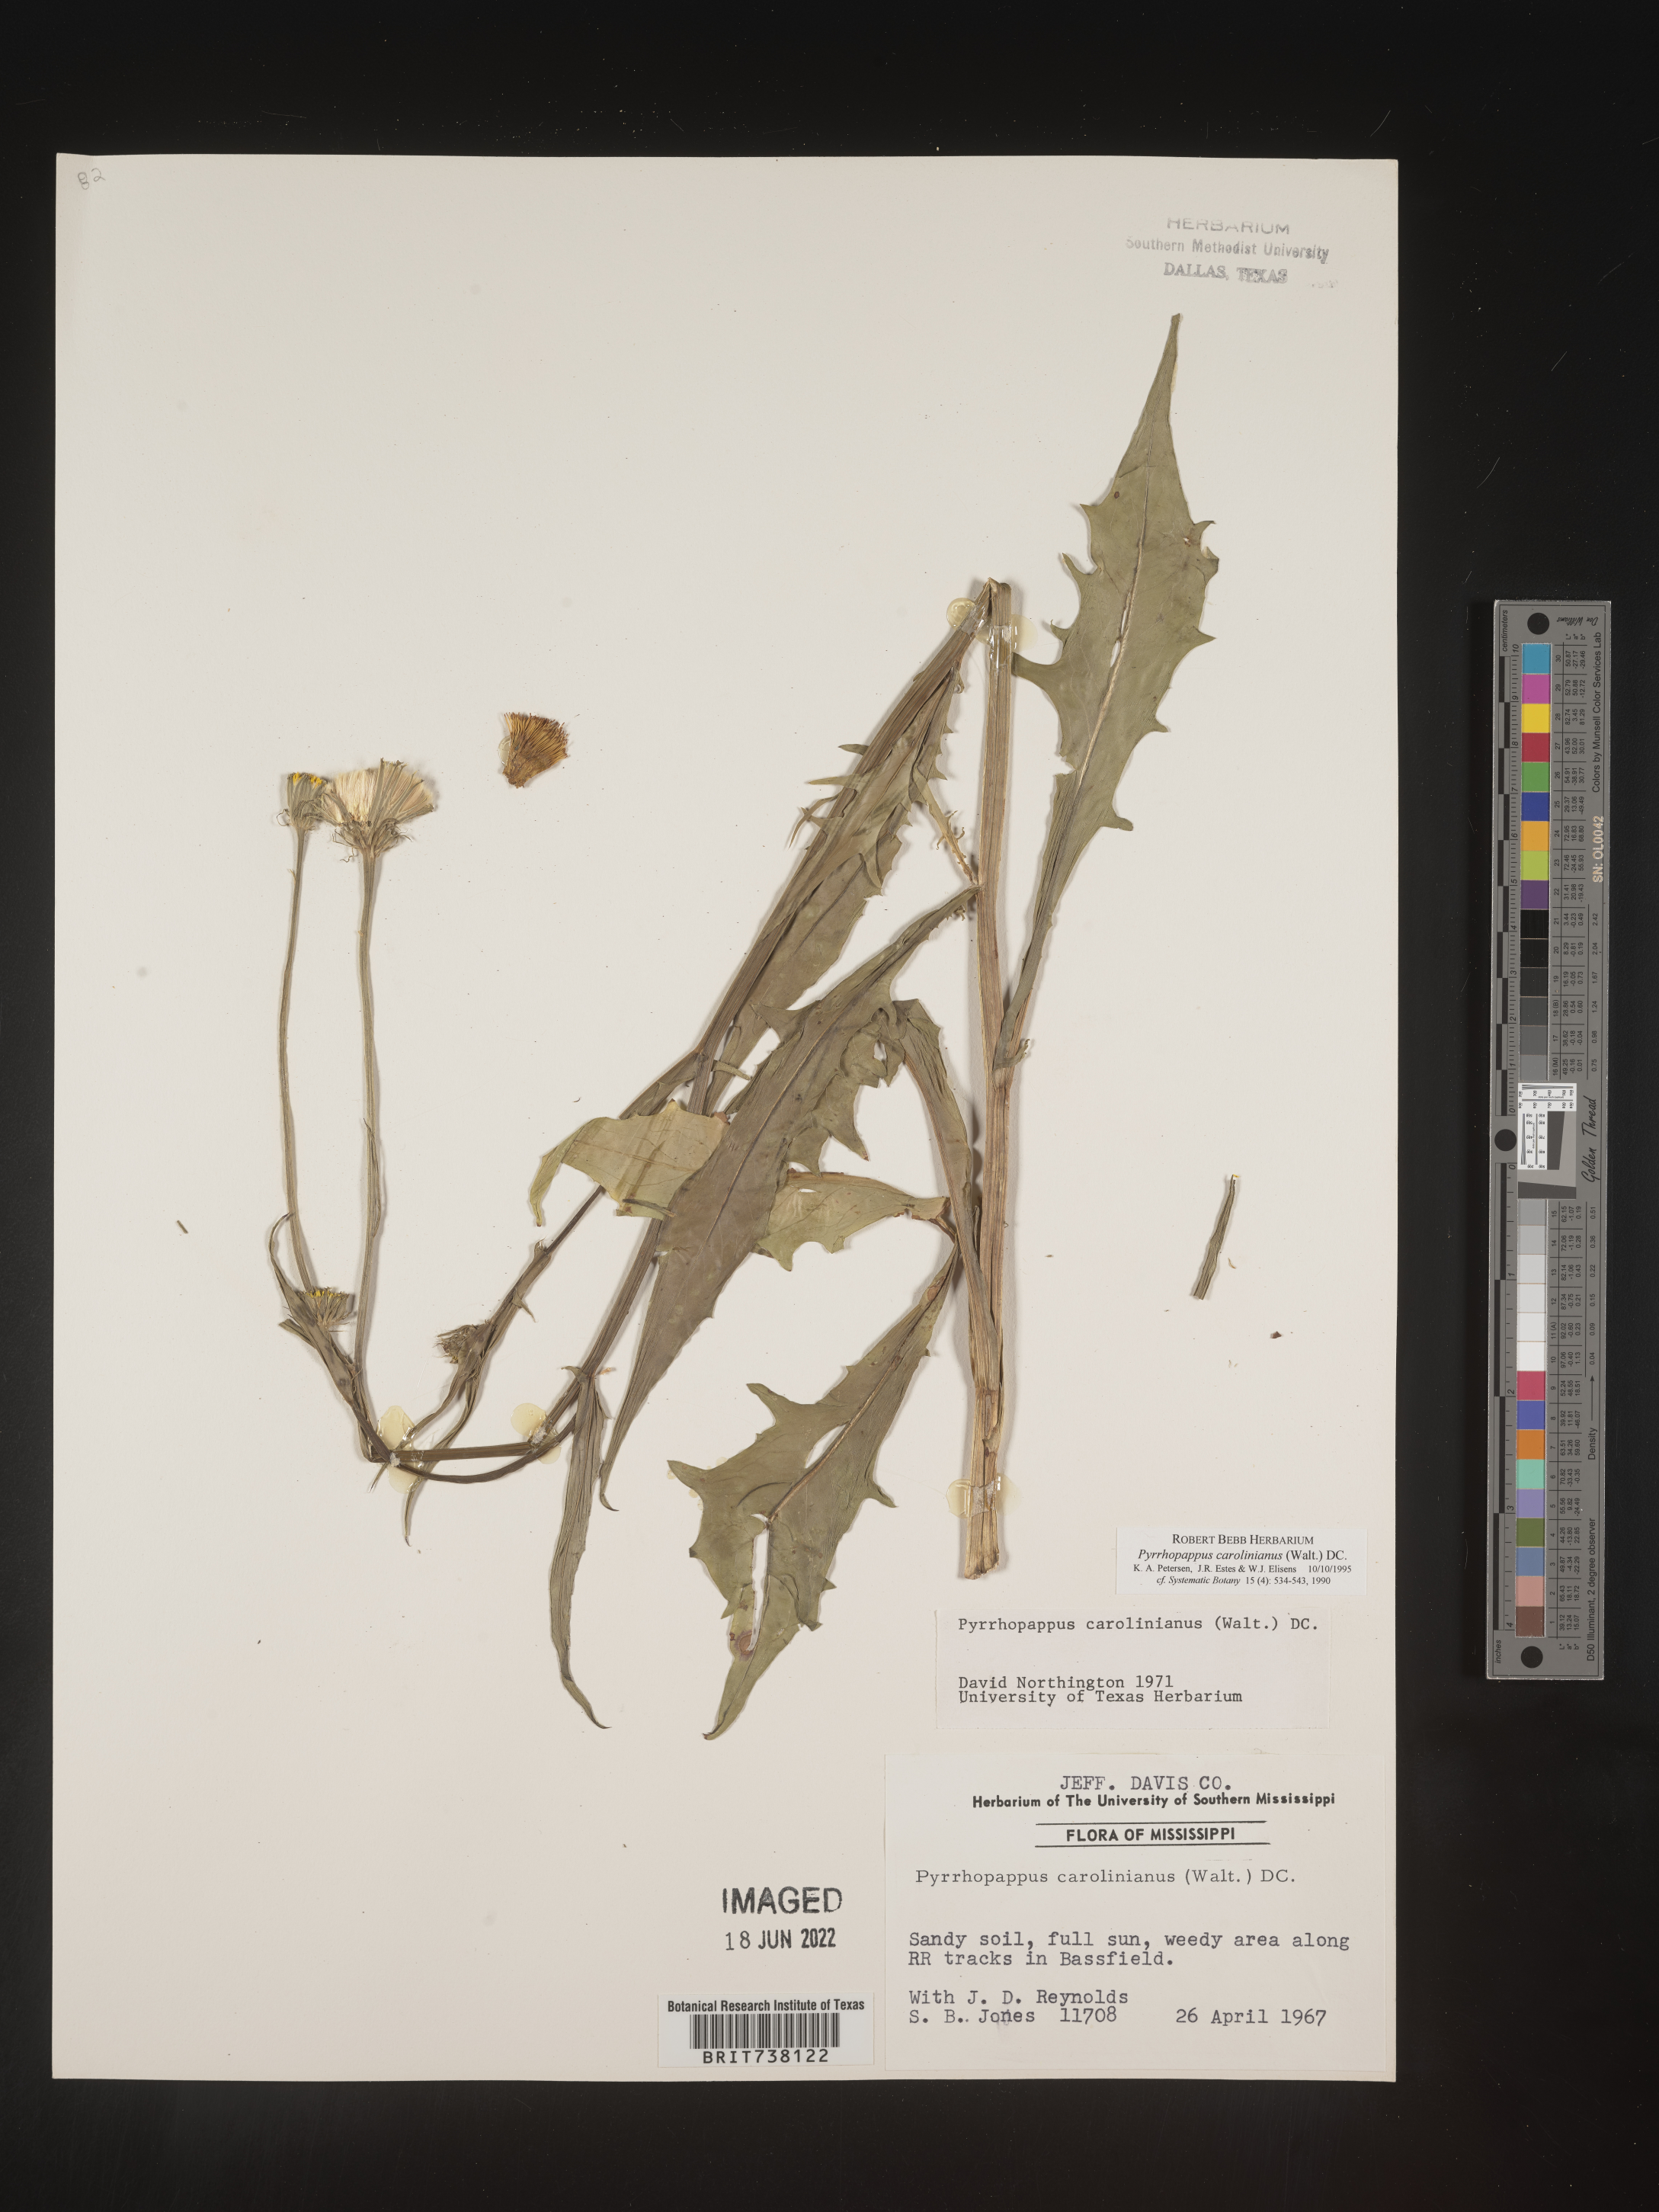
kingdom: Plantae
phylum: Tracheophyta
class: Magnoliopsida
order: Asterales
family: Asteraceae
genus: Pyrrhopappus
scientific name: Pyrrhopappus carolinianus
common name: Carolina desert-chicory
